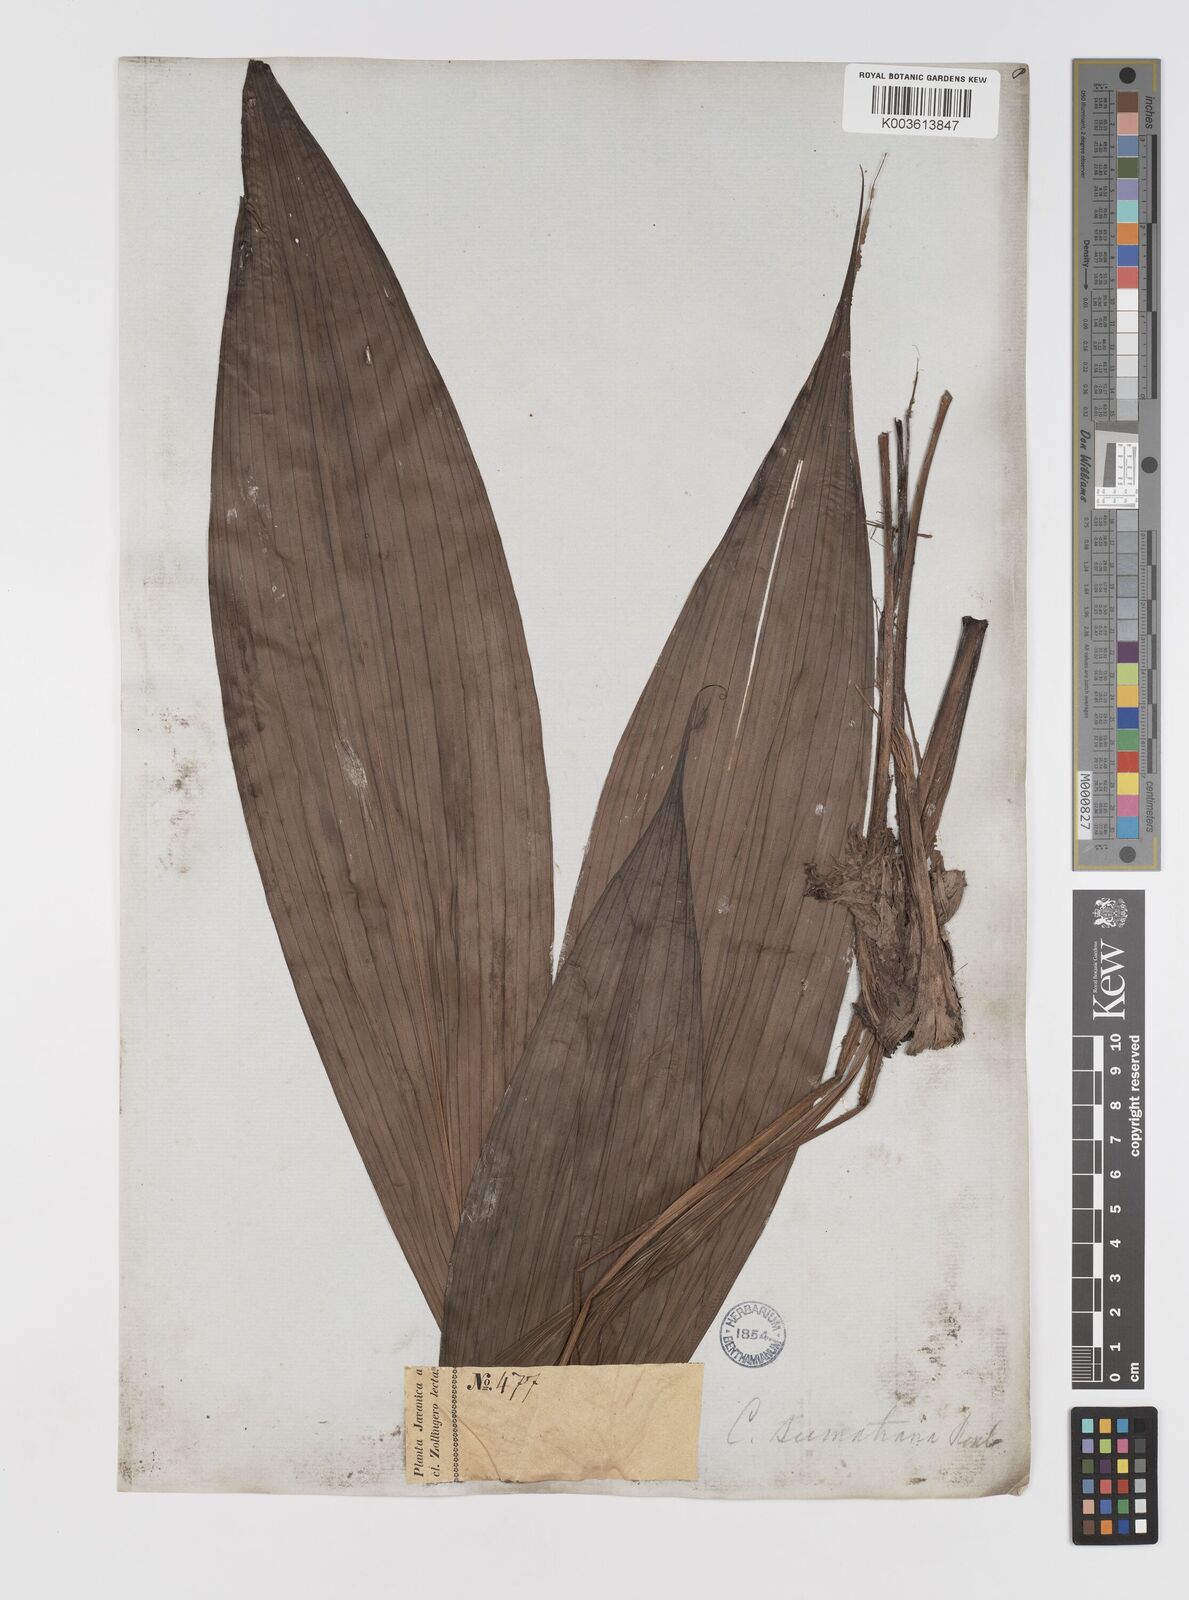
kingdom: Plantae
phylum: Tracheophyta
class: Liliopsida
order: Asparagales
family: Hypoxidaceae
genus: Curculigo
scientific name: Curculigo latifolia
